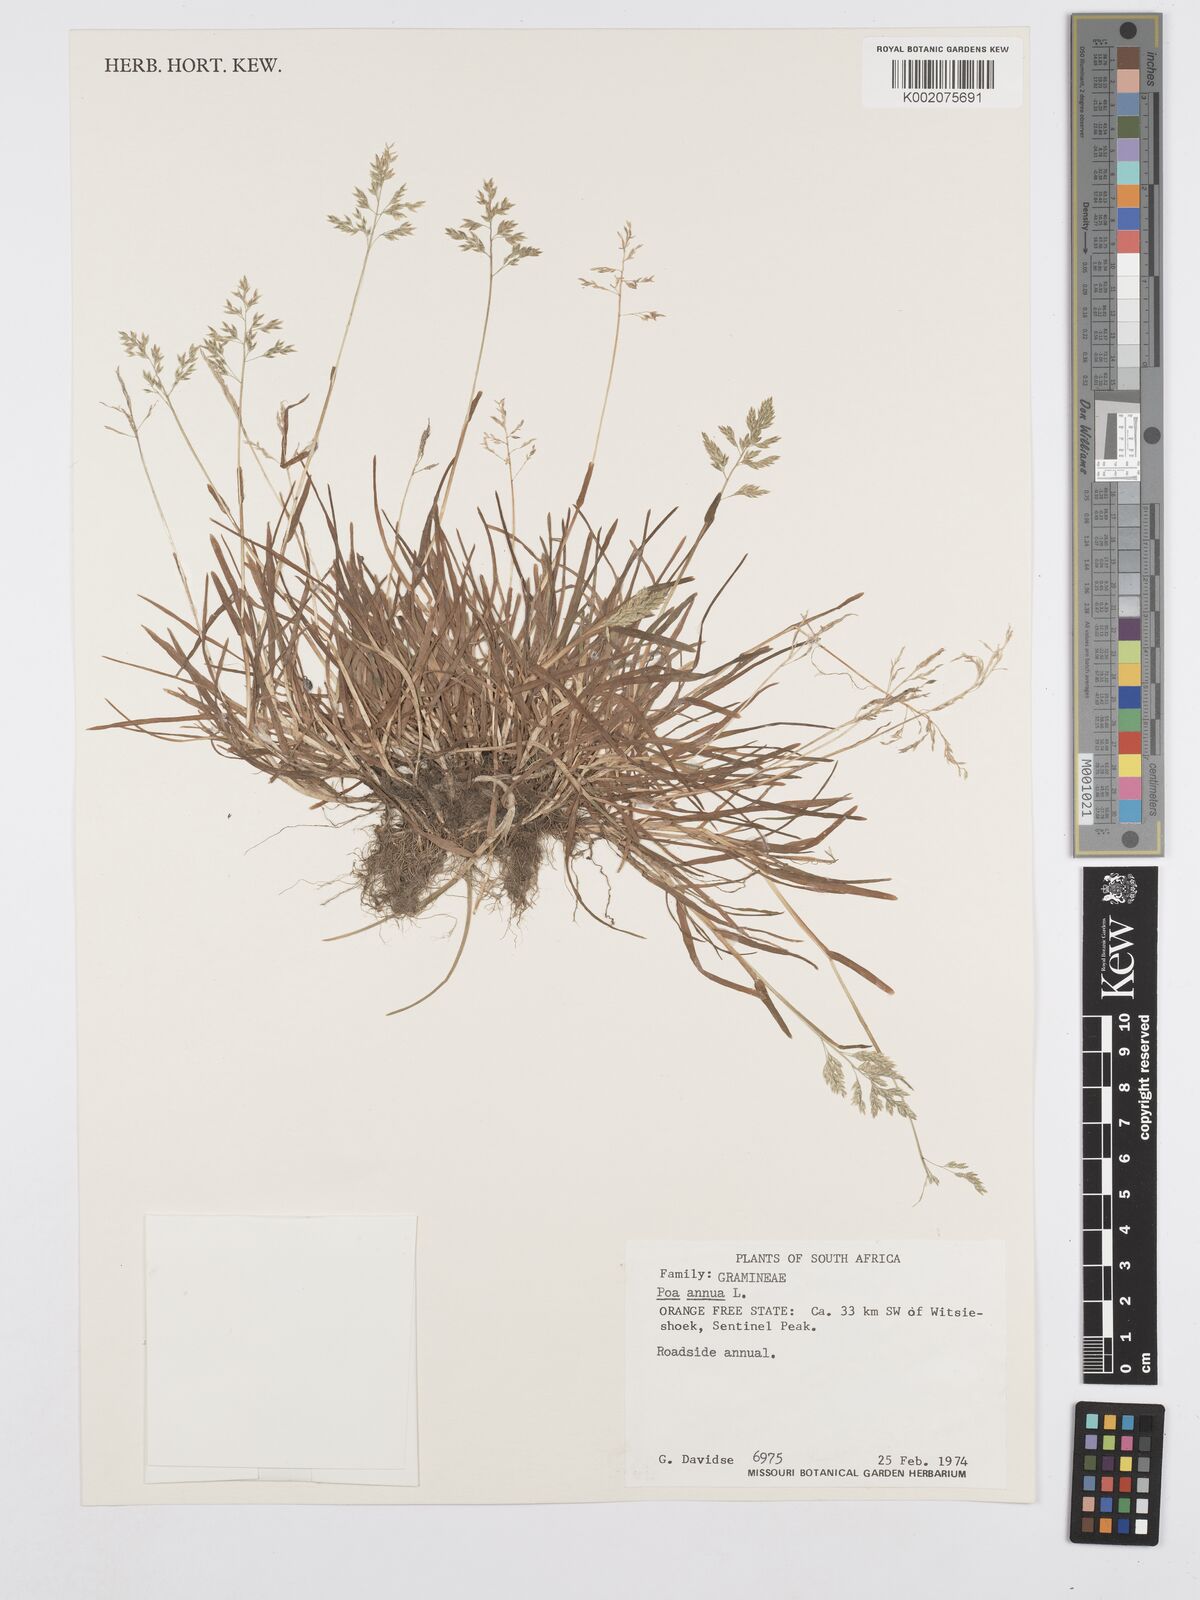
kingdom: Plantae
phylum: Tracheophyta
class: Liliopsida
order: Poales
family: Poaceae
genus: Poa
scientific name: Poa annua
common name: Annual bluegrass
